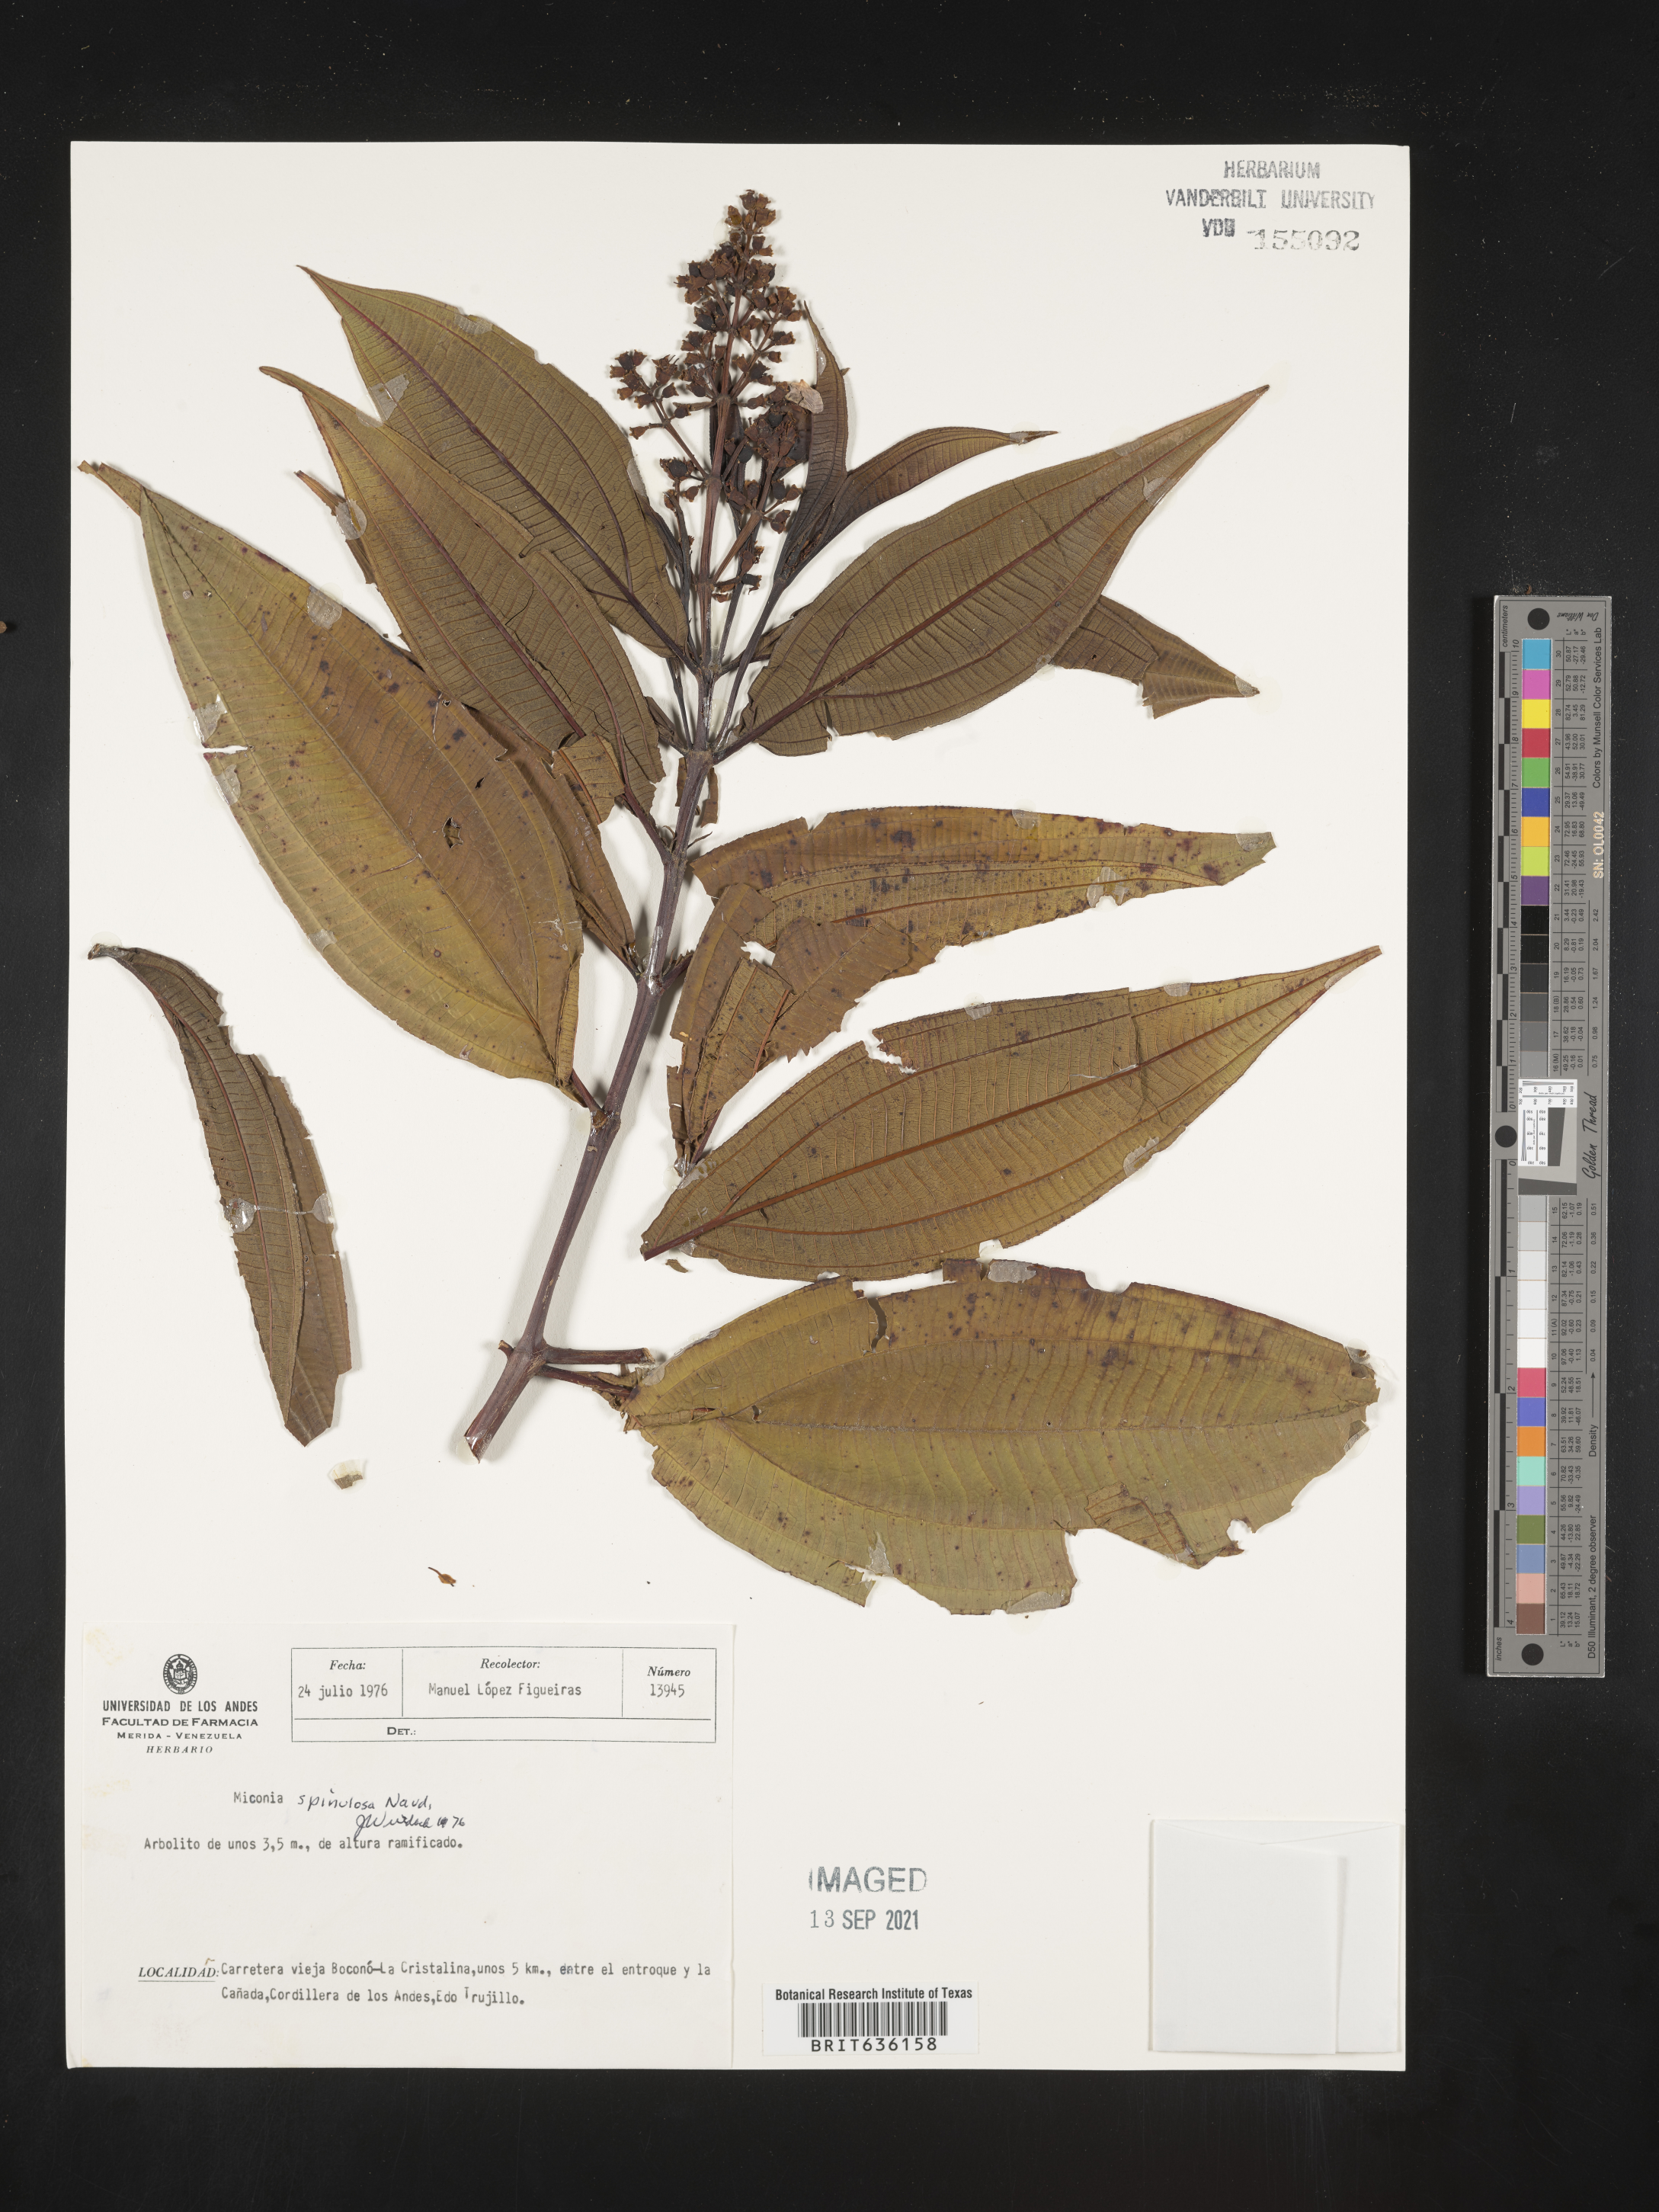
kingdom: Plantae
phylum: Tracheophyta
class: Magnoliopsida
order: Myrtales
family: Melastomataceae
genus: Miconia
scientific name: Miconia
